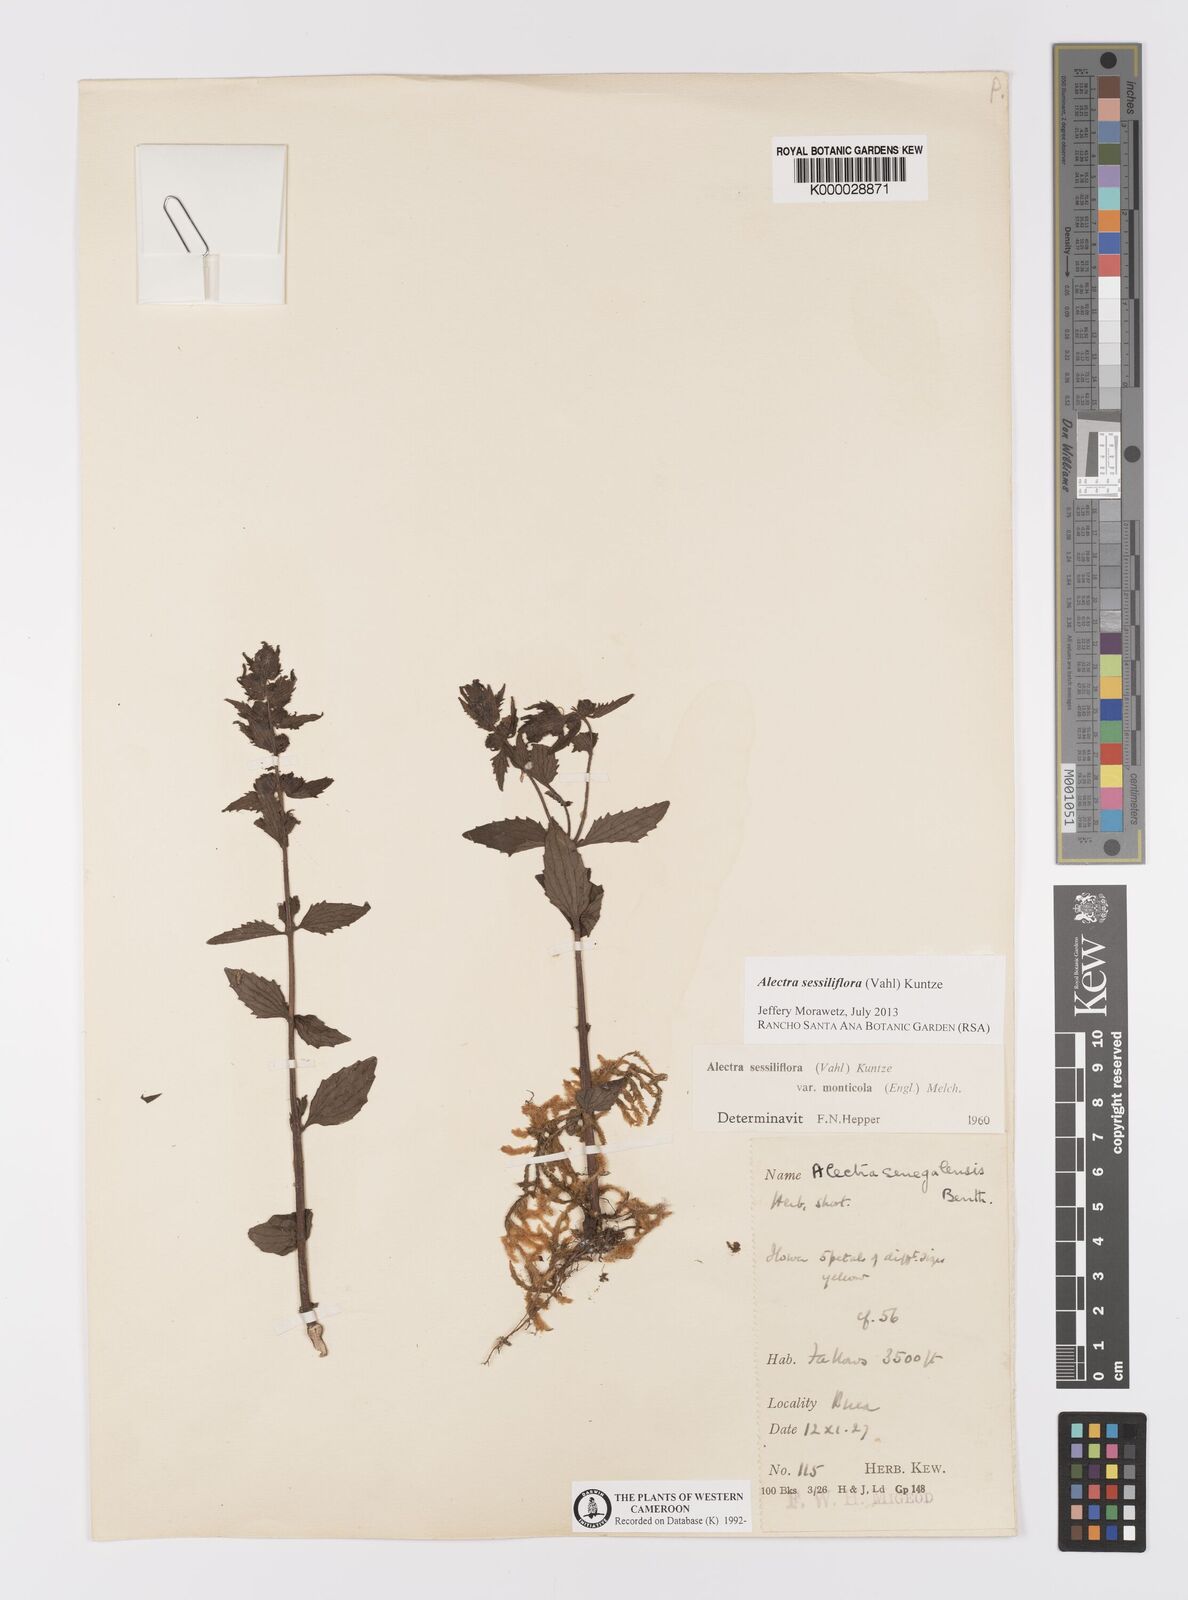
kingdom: Plantae
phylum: Tracheophyta
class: Magnoliopsida
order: Lamiales
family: Orobanchaceae
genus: Alectra
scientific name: Alectra sessiliflora
